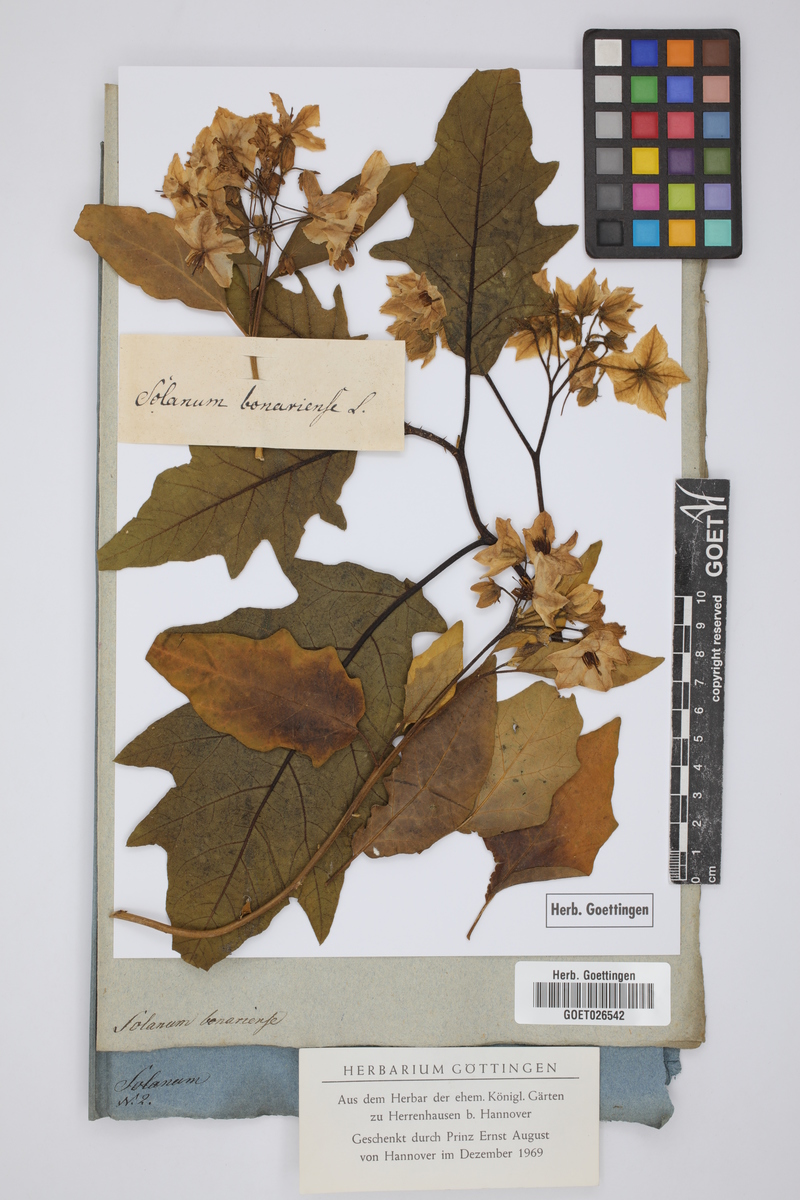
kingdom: Plantae
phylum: Tracheophyta
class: Magnoliopsida
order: Solanales
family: Solanaceae
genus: Solanum
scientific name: Solanum bonariense
